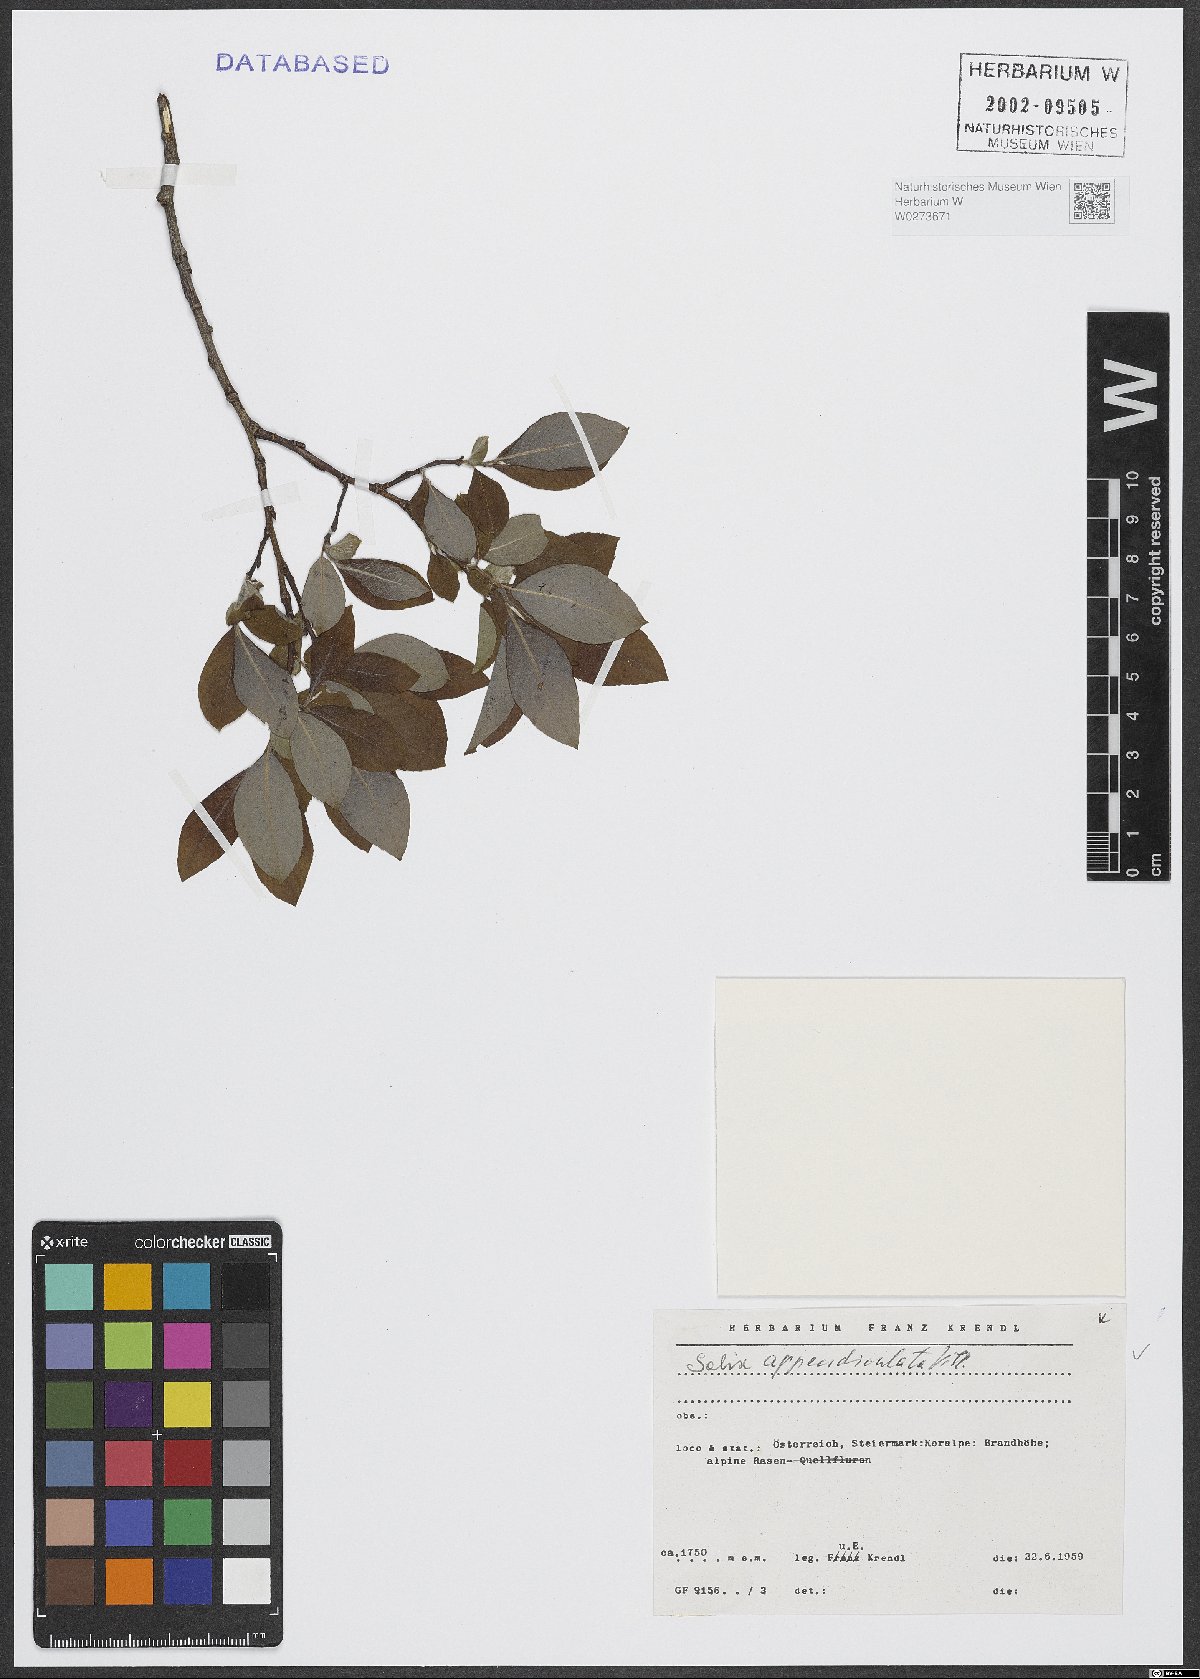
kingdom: Plantae
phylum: Tracheophyta
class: Magnoliopsida
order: Malpighiales
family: Salicaceae
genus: Salix
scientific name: Salix appendiculata
